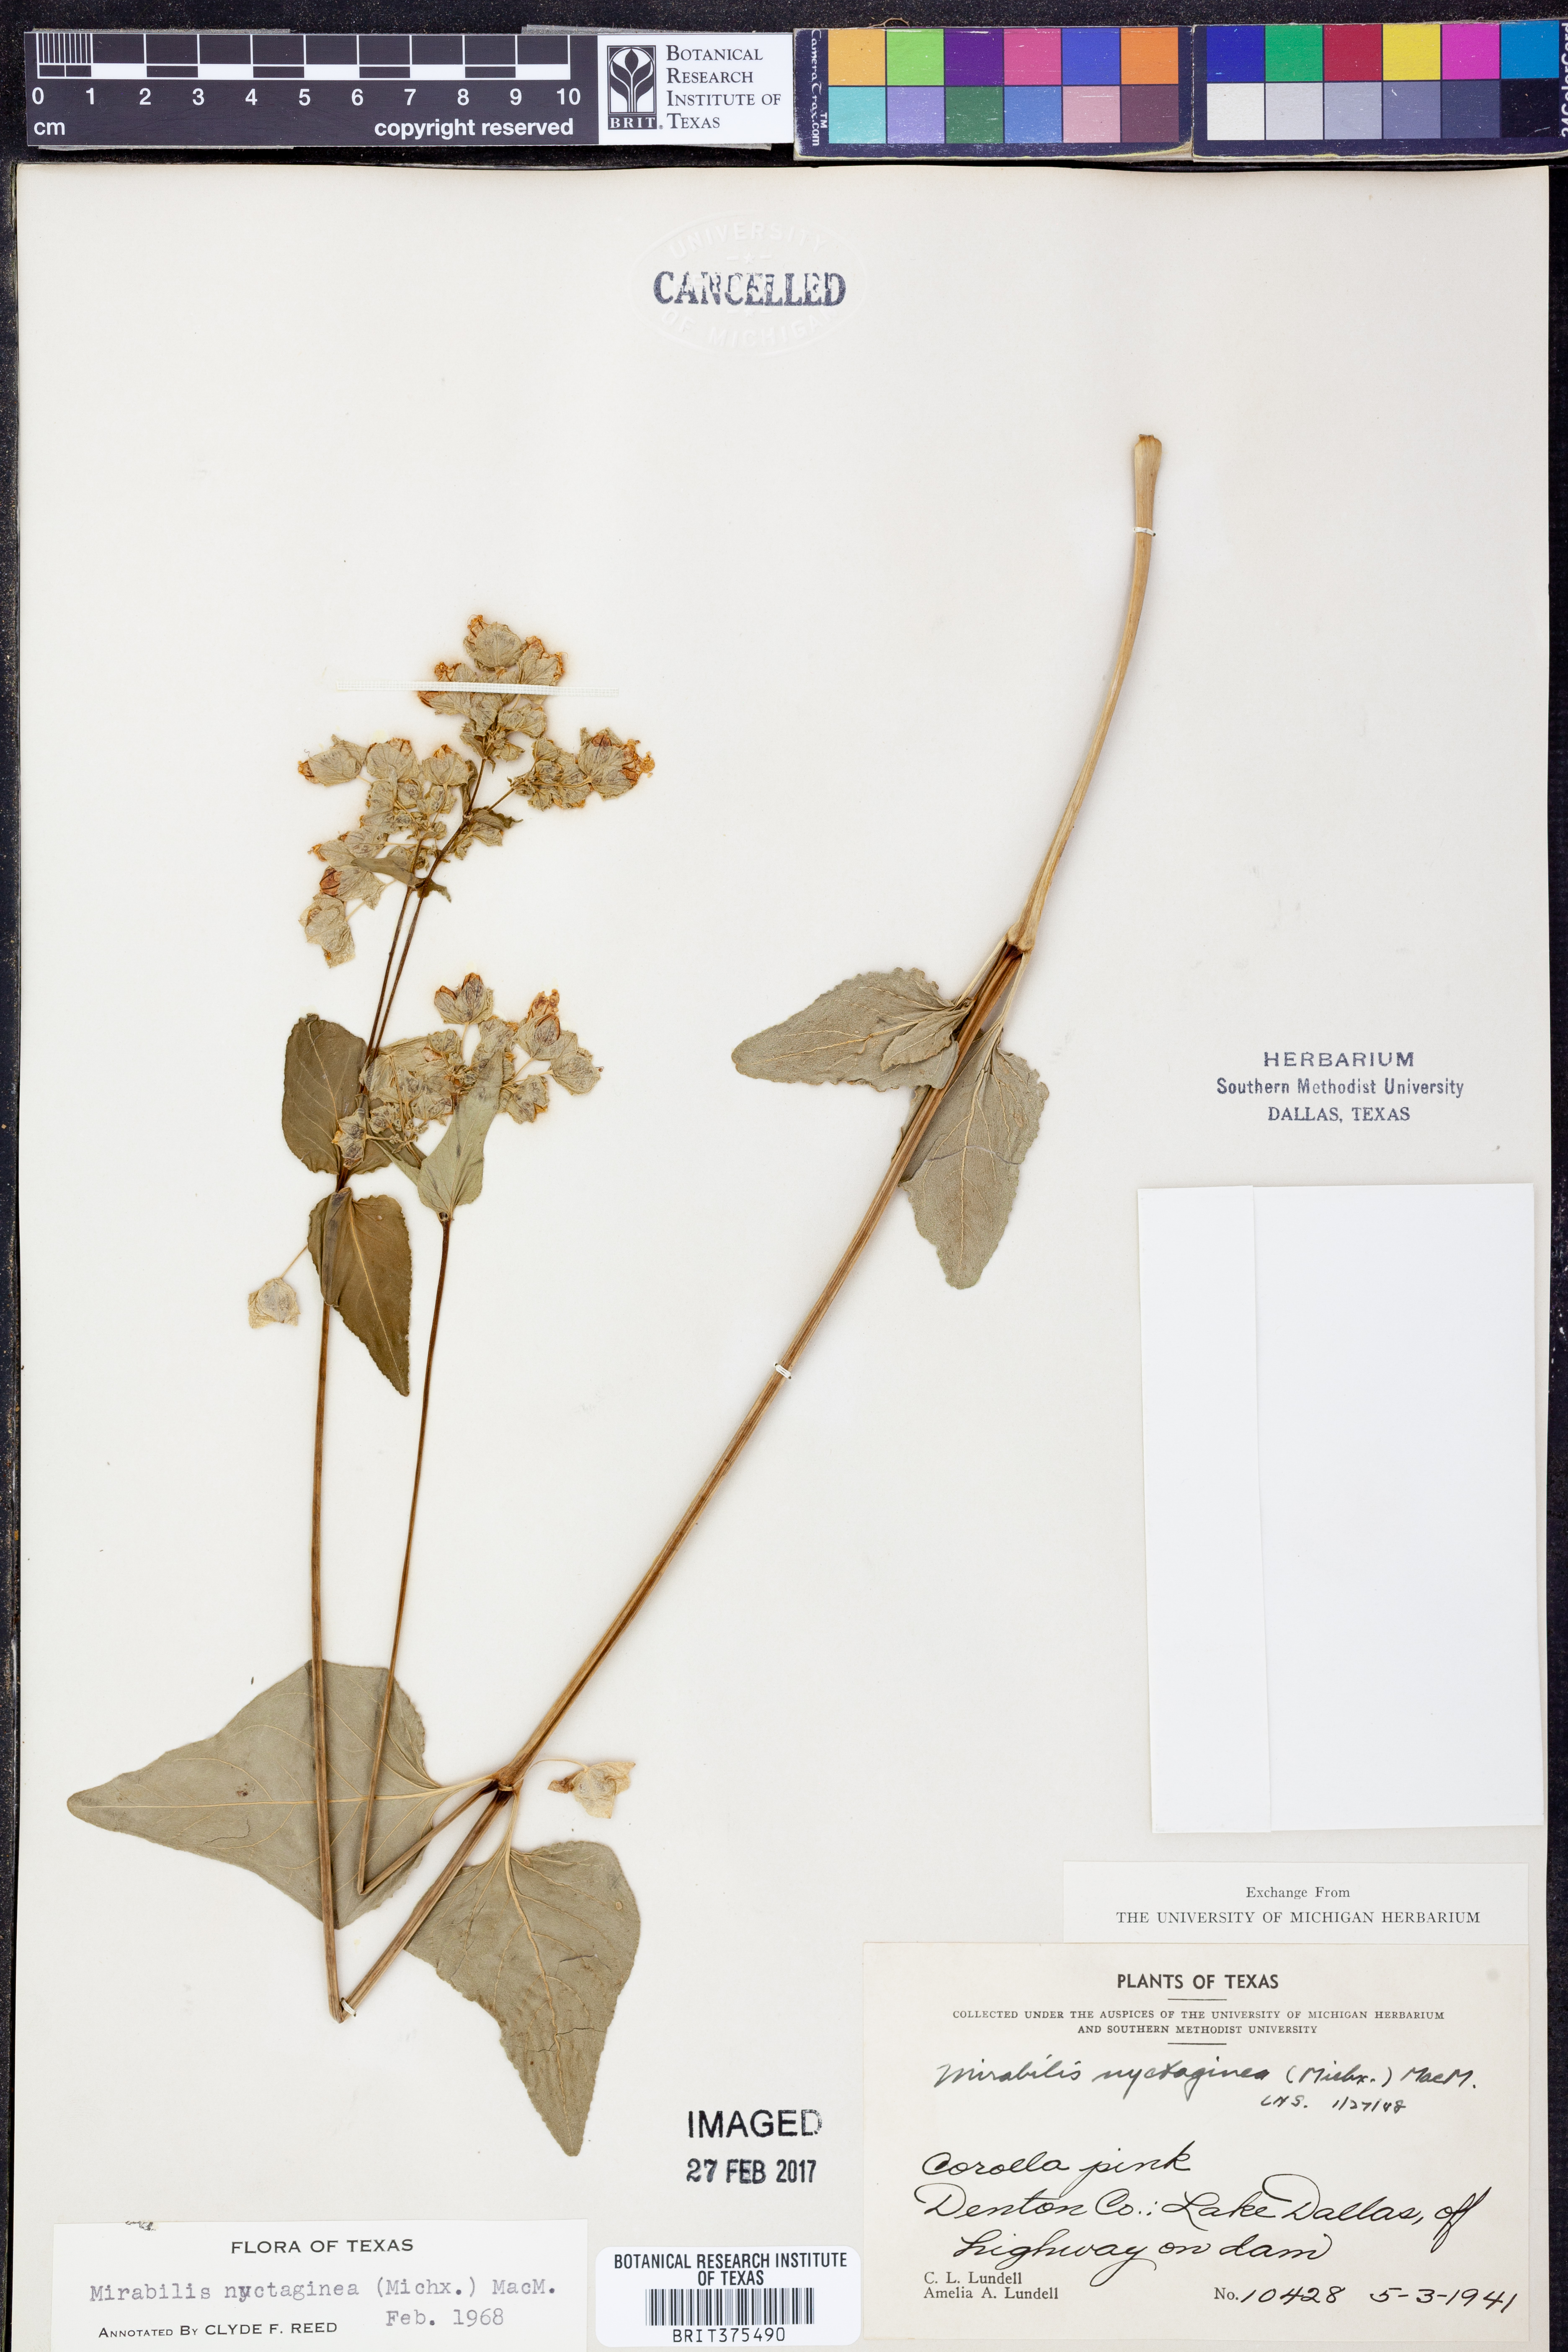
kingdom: Plantae
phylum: Tracheophyta
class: Magnoliopsida
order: Caryophyllales
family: Nyctaginaceae
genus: Mirabilis
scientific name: Mirabilis nyctaginea
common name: Umbrella wort
